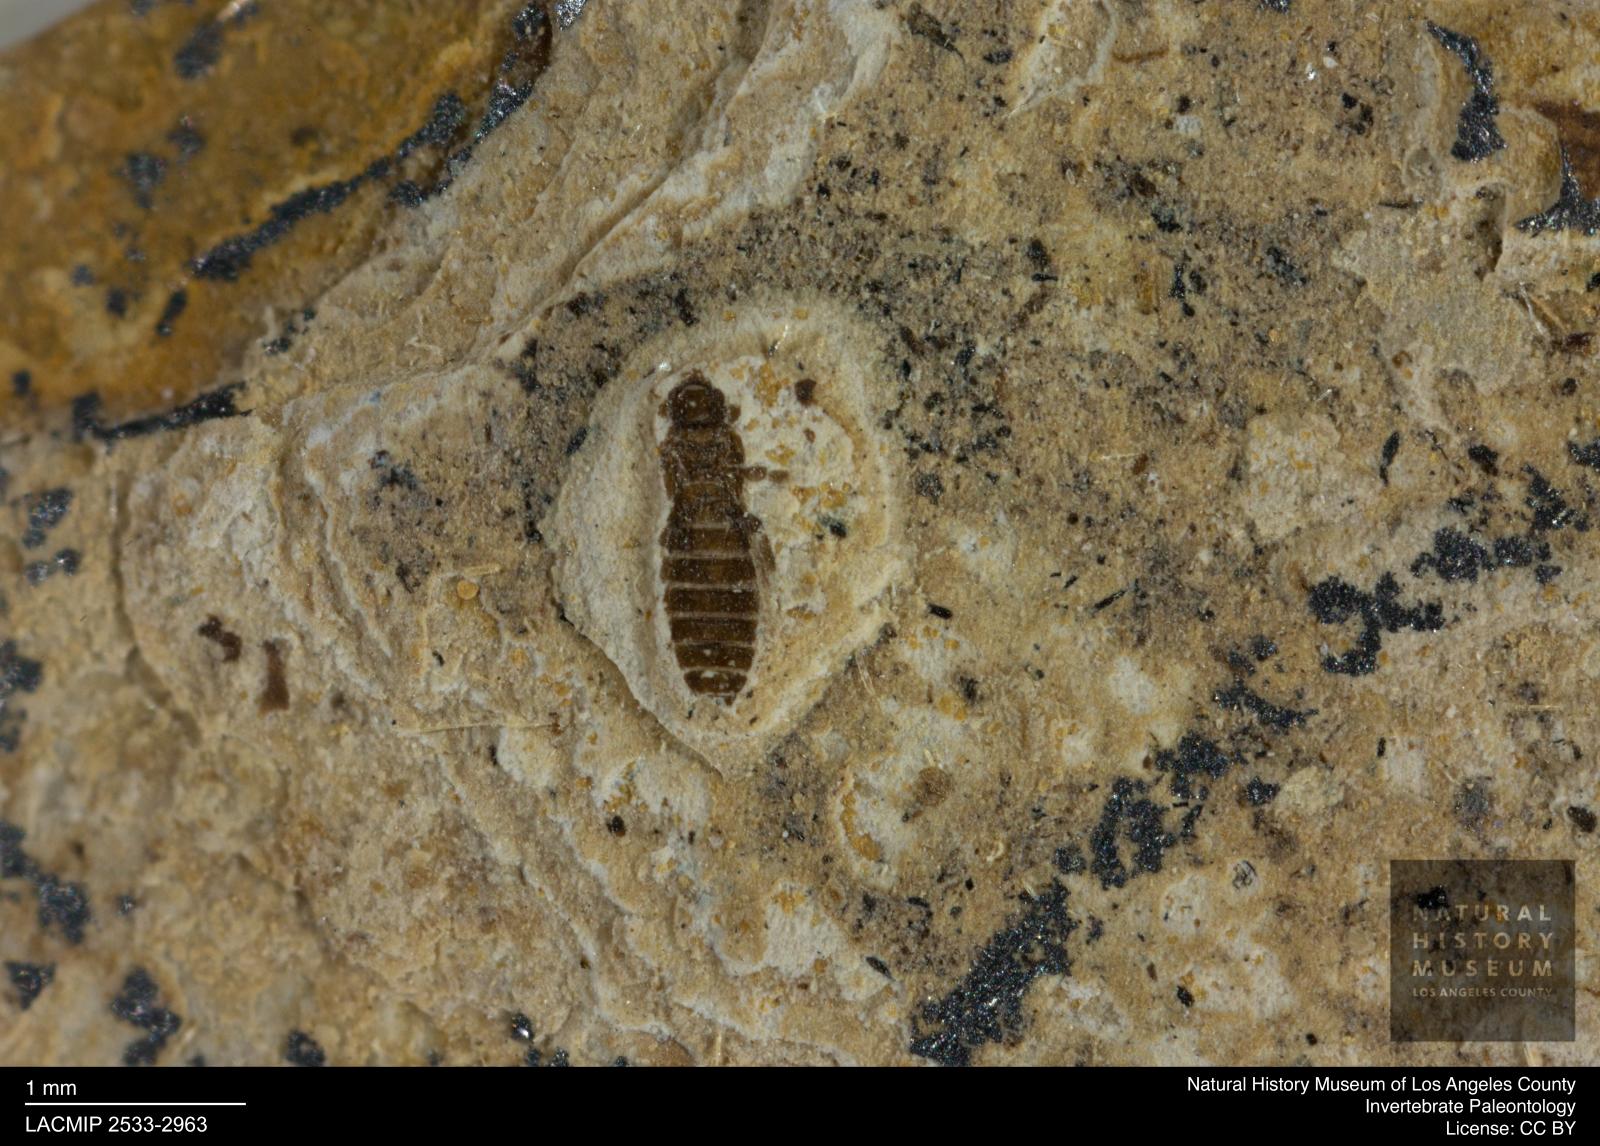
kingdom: Animalia
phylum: Arthropoda
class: Insecta
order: Thysanoptera
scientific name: Thysanoptera
